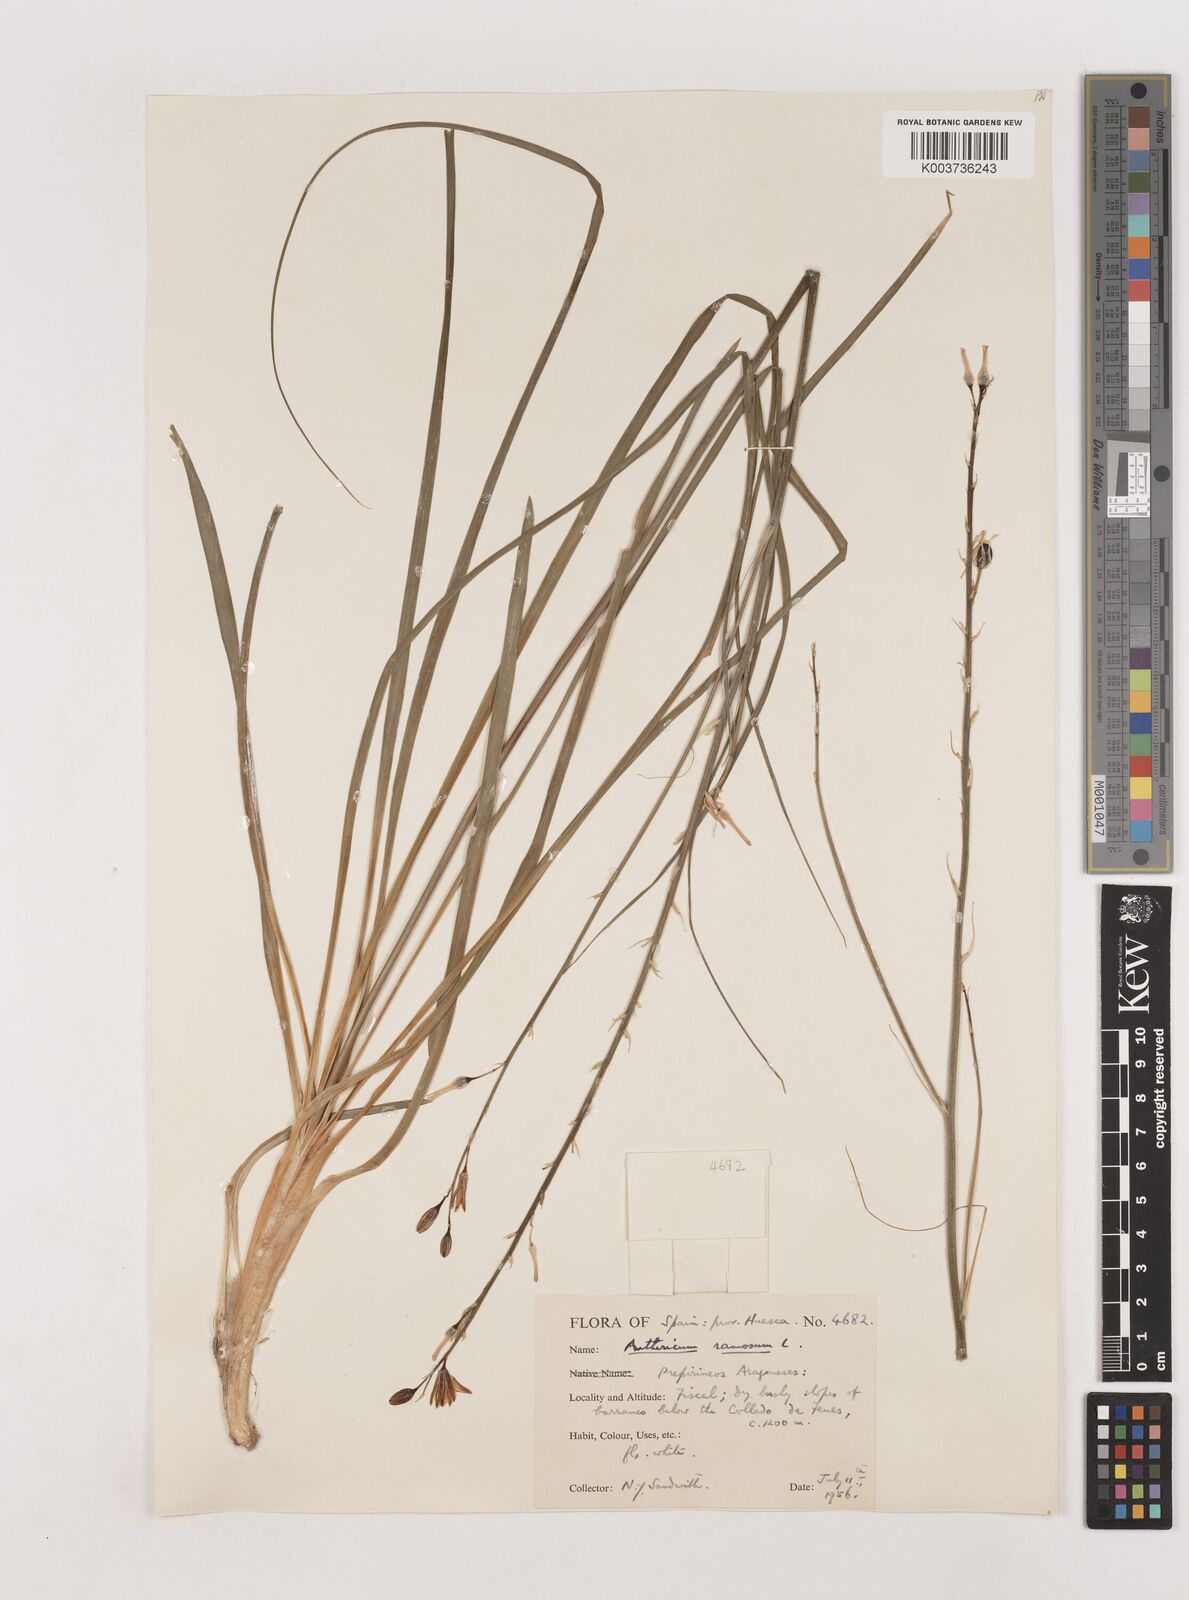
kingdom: Plantae
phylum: Tracheophyta
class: Liliopsida
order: Asparagales
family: Asparagaceae
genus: Anthericum
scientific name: Anthericum ramosum
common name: Branched st. bernard's-lily
